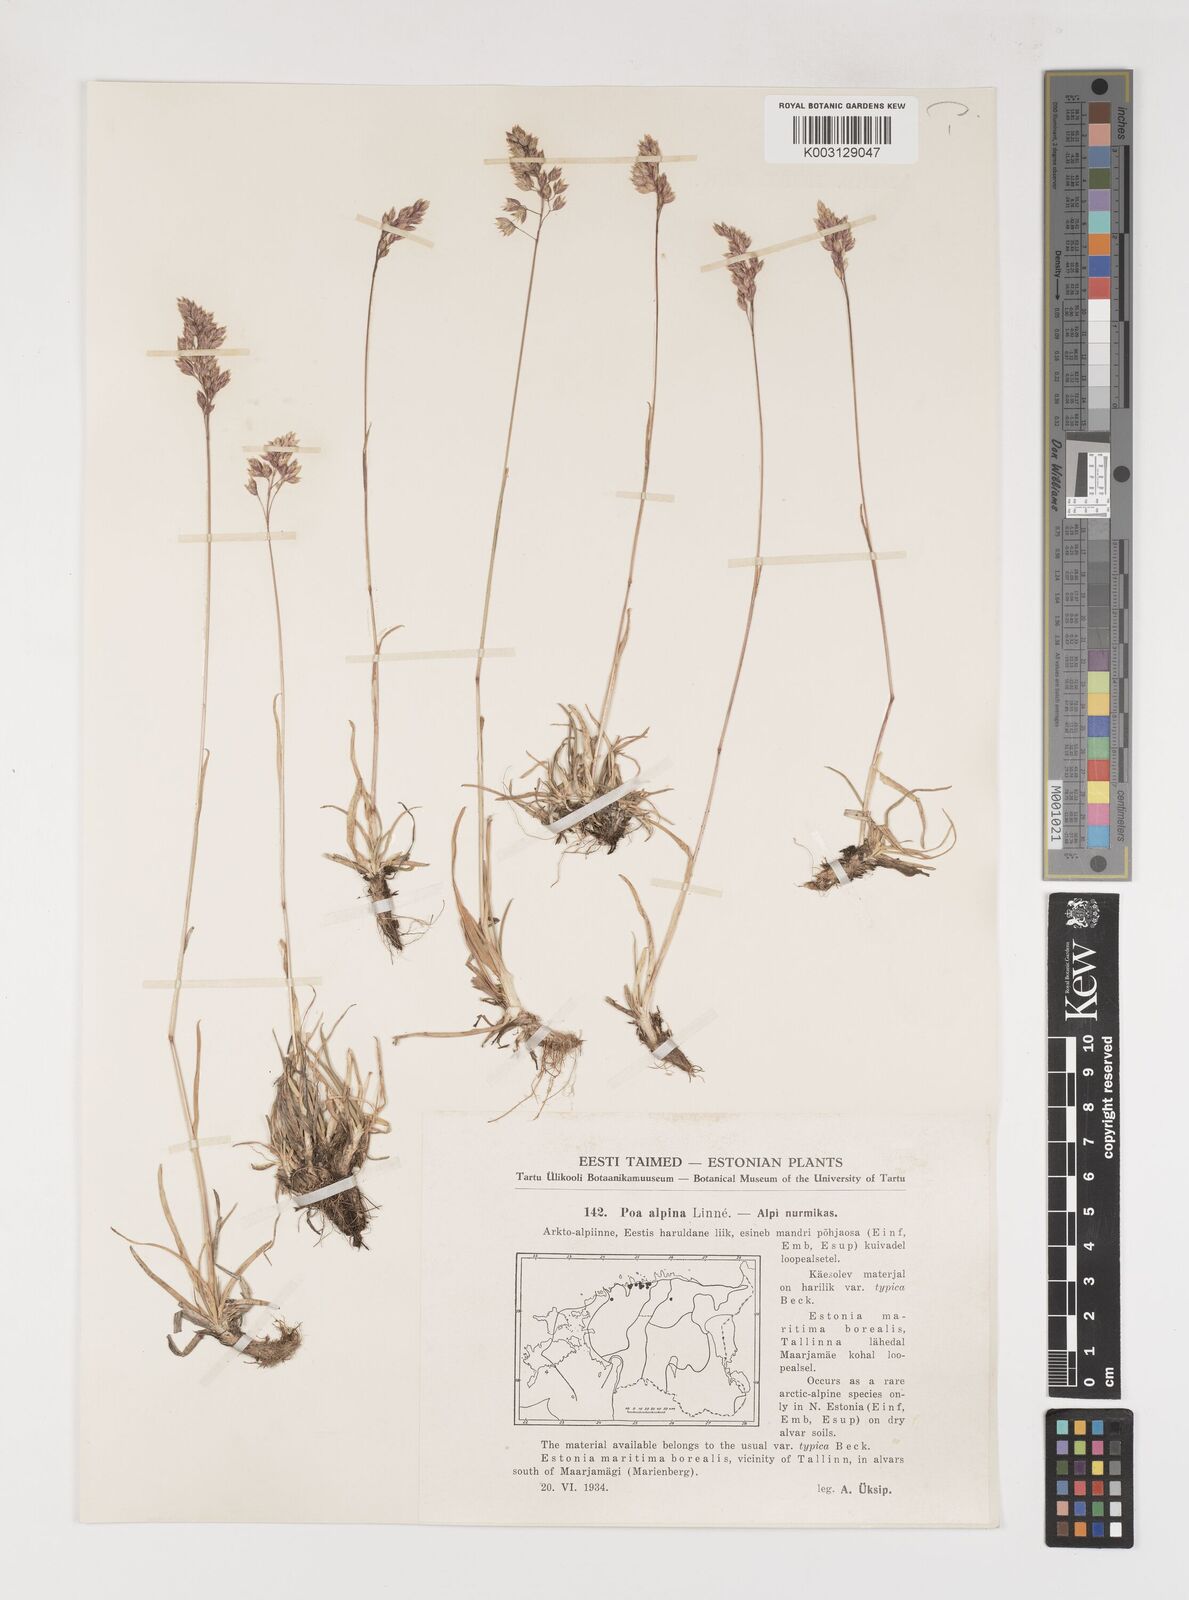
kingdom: Plantae
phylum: Tracheophyta
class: Liliopsida
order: Poales
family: Poaceae
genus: Poa
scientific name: Poa alpina
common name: Alpine bluegrass
